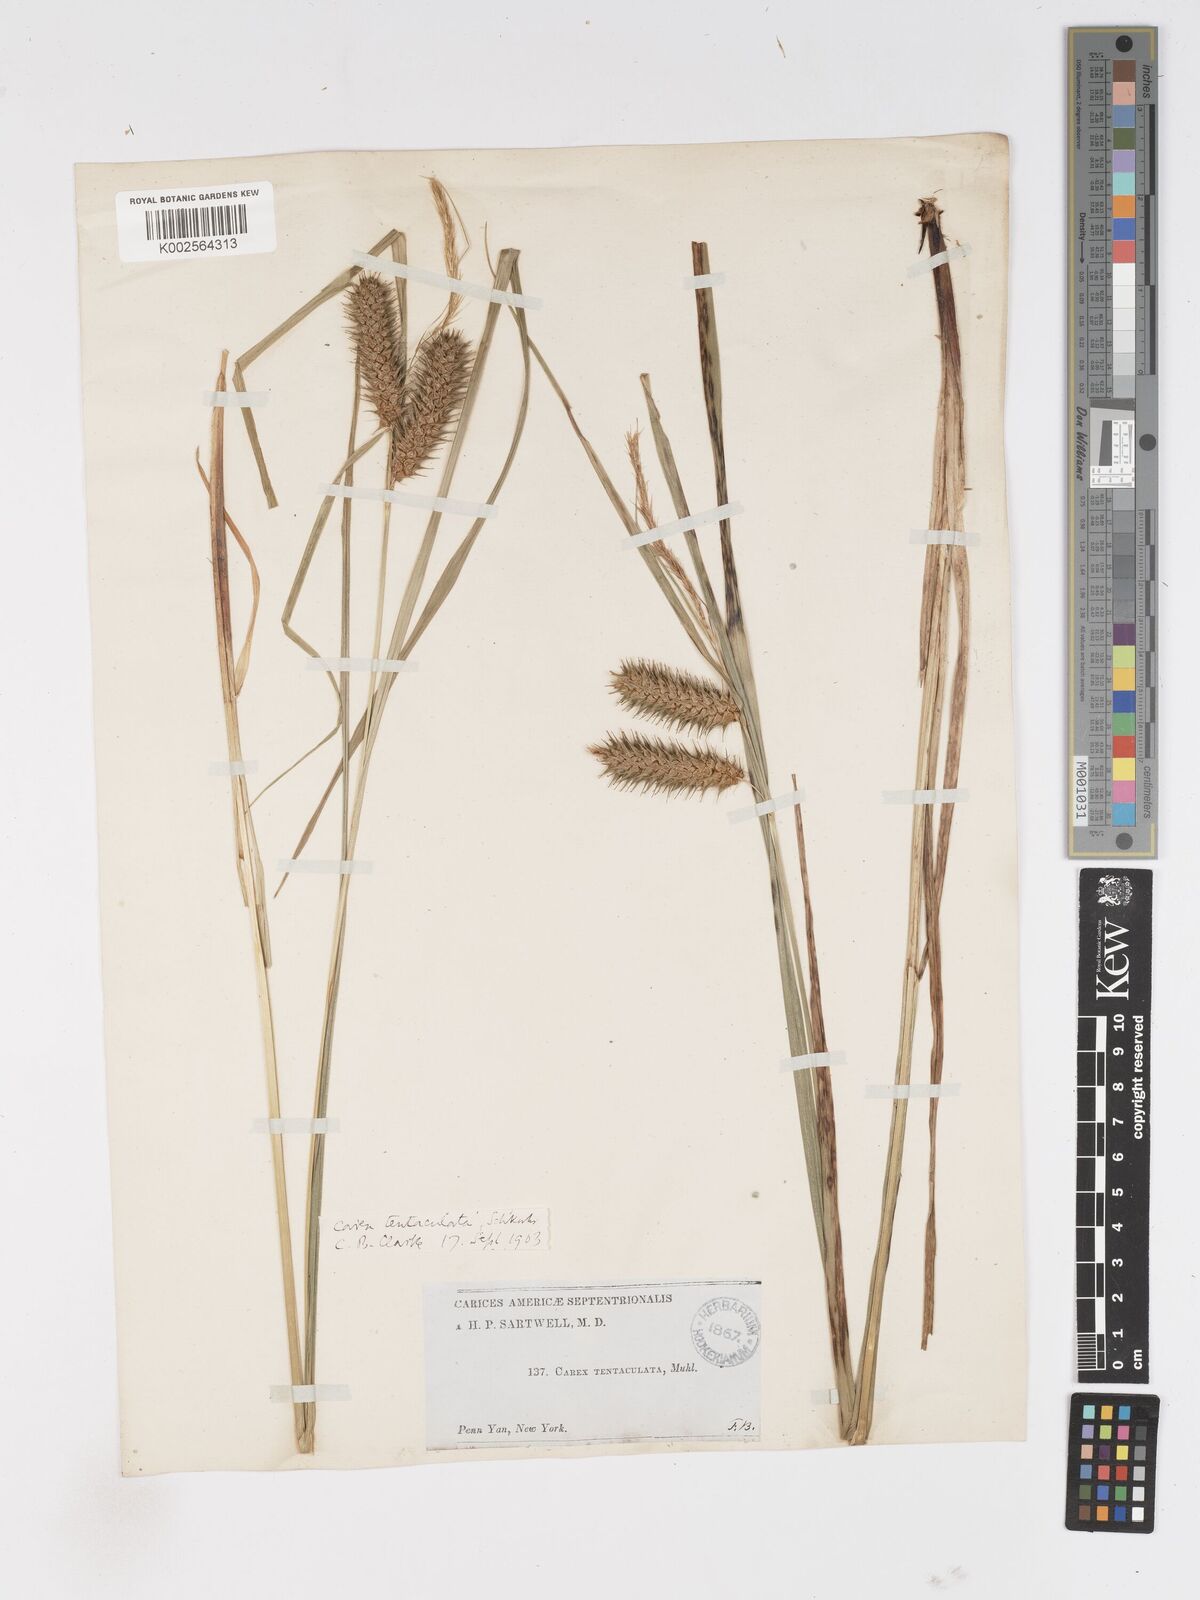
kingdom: Plantae
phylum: Tracheophyta
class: Liliopsida
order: Poales
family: Cyperaceae
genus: Carex
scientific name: Carex lurida
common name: Sallow sedge
